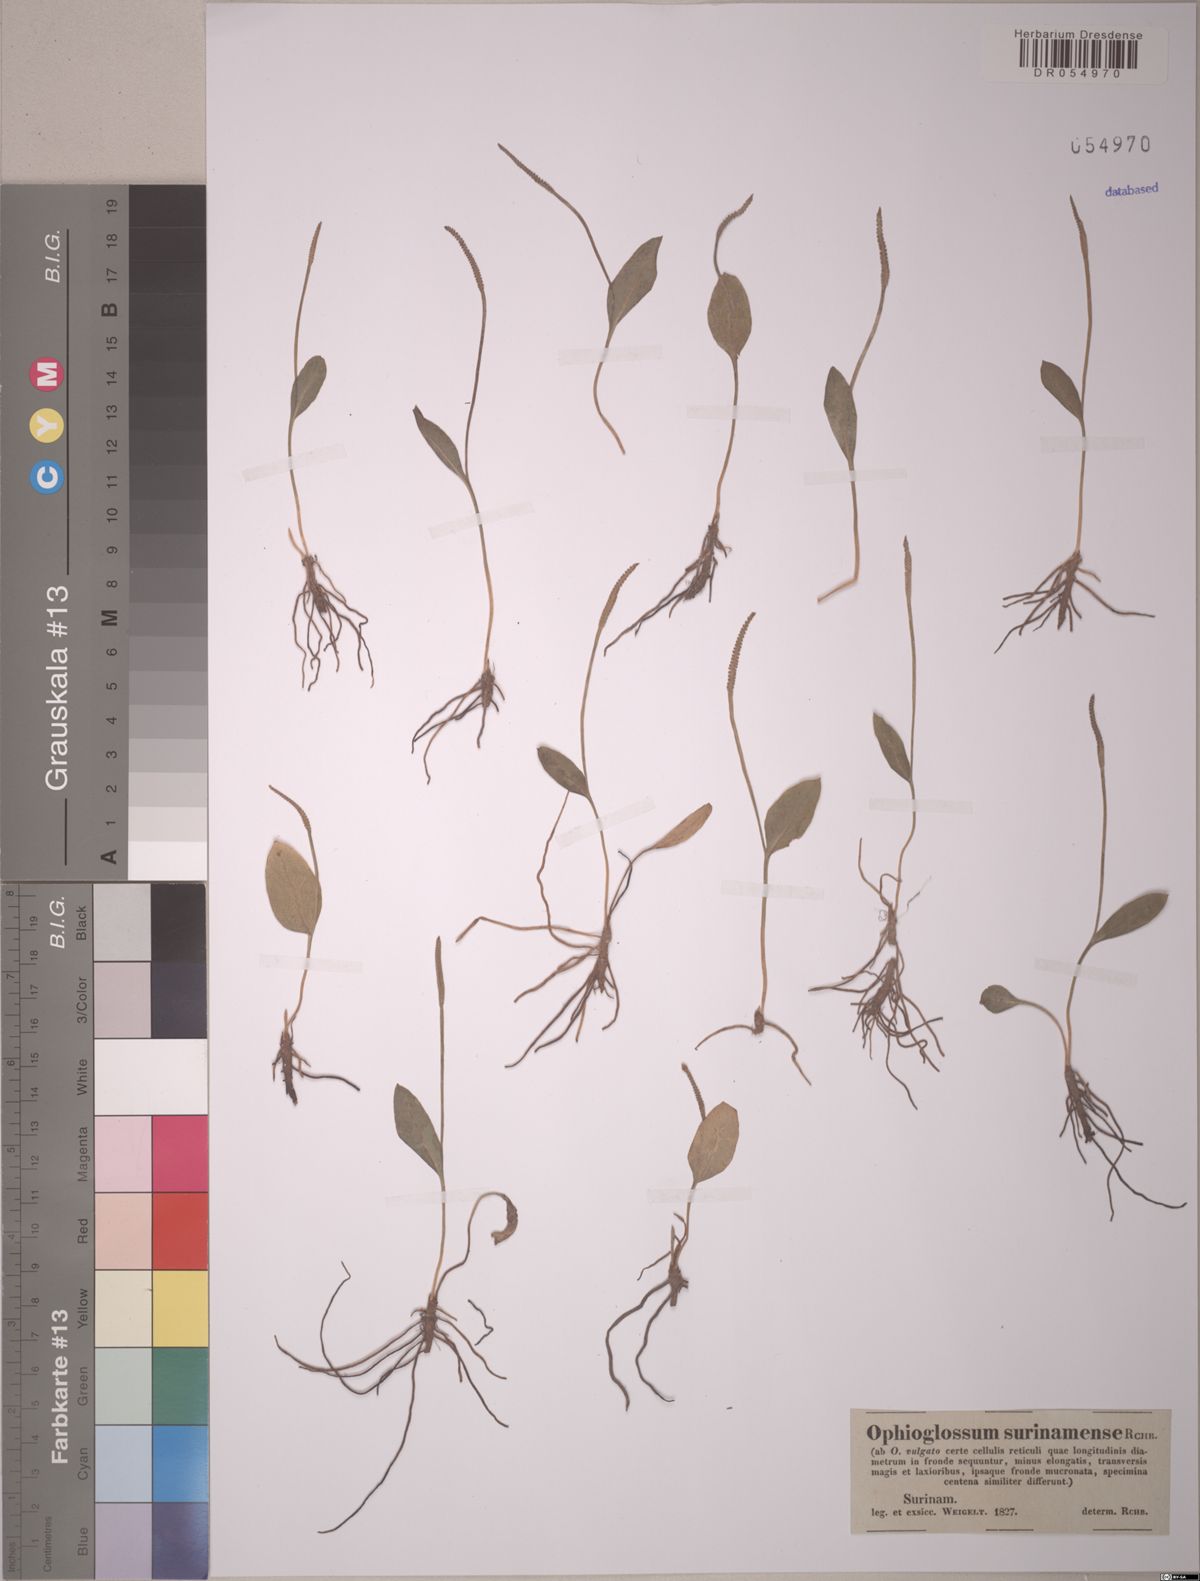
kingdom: Plantae
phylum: Tracheophyta
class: Polypodiopsida
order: Ophioglossales
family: Ophioglossaceae
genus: Ophioglossum
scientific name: Ophioglossum nudicaule
